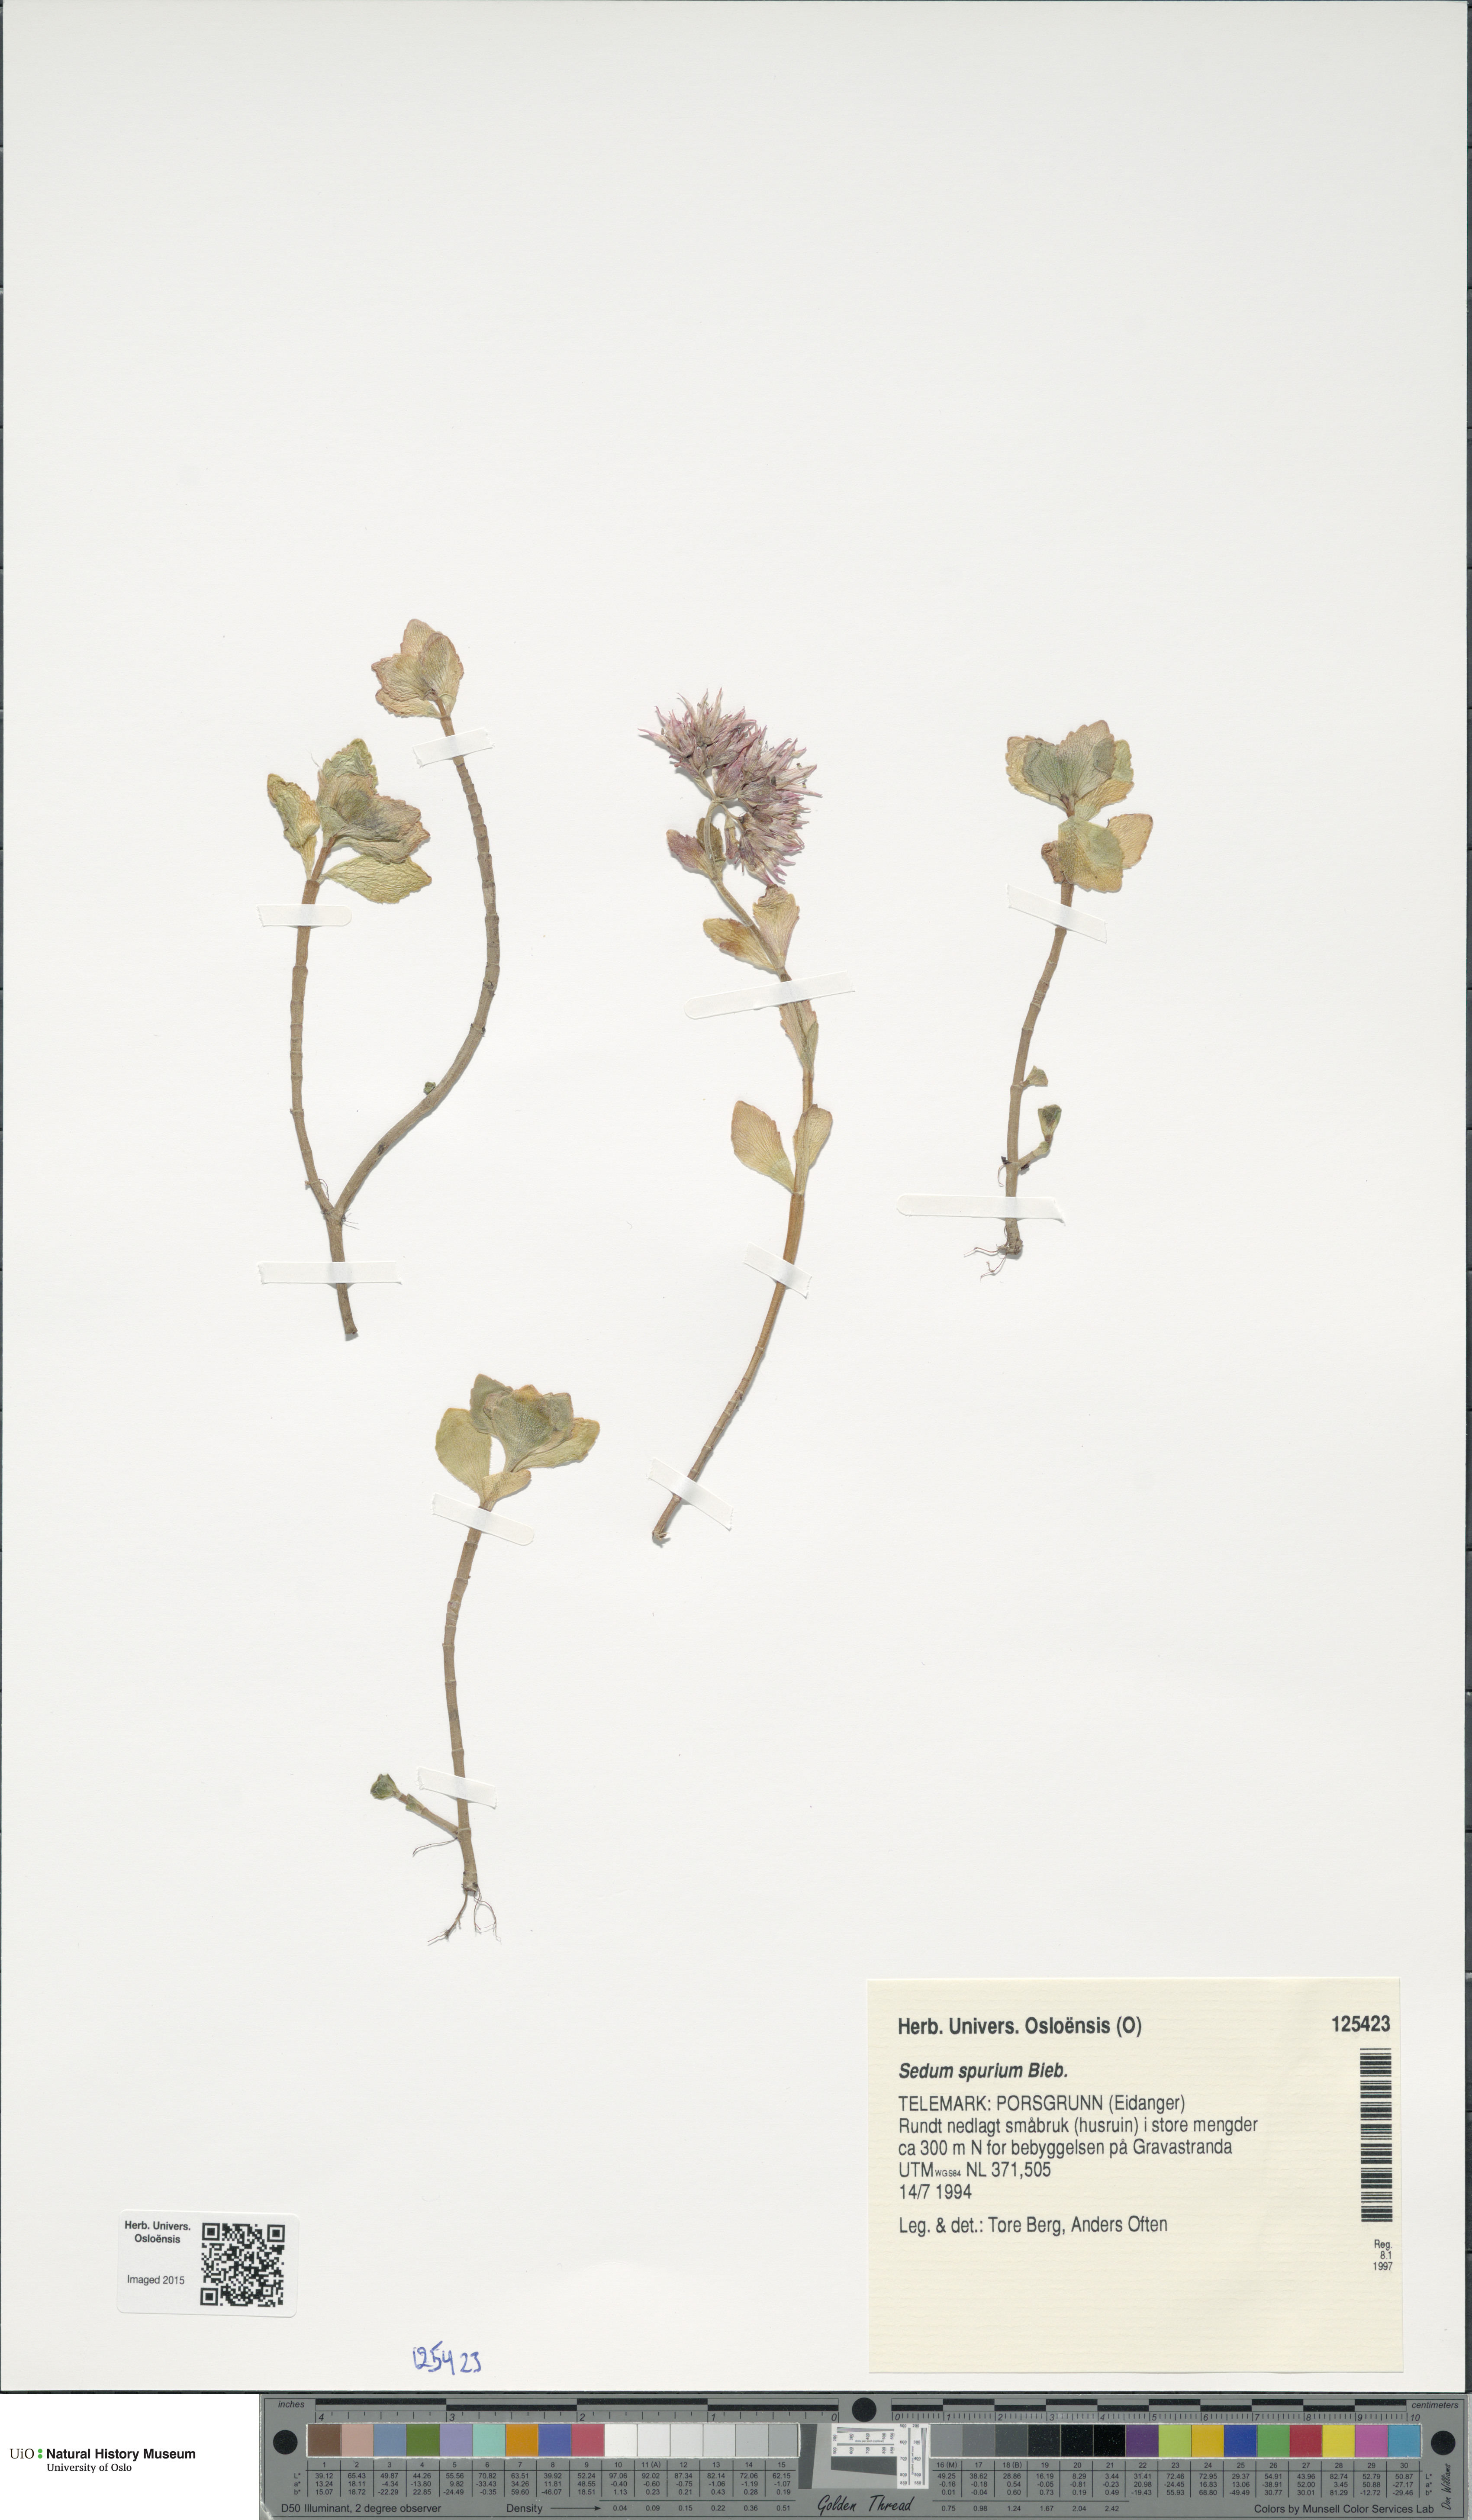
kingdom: Plantae
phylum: Tracheophyta
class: Magnoliopsida
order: Saxifragales
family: Crassulaceae
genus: Phedimus
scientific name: Phedimus spurius
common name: Caucasian stonecrop
